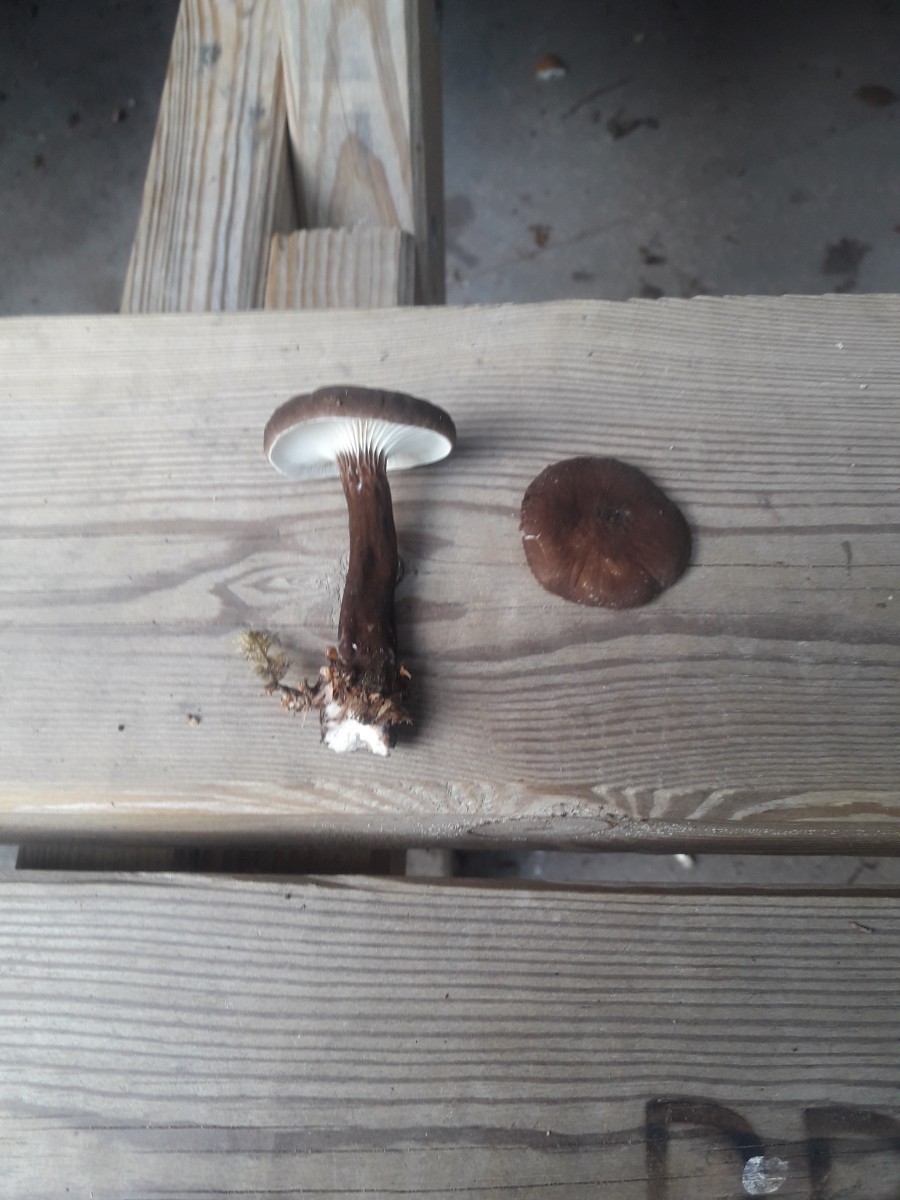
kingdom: Fungi
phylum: Basidiomycota
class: Agaricomycetes
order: Russulales
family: Russulaceae
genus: Lactarius
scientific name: Lactarius lignyotus
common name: fløjls-mælkehat
